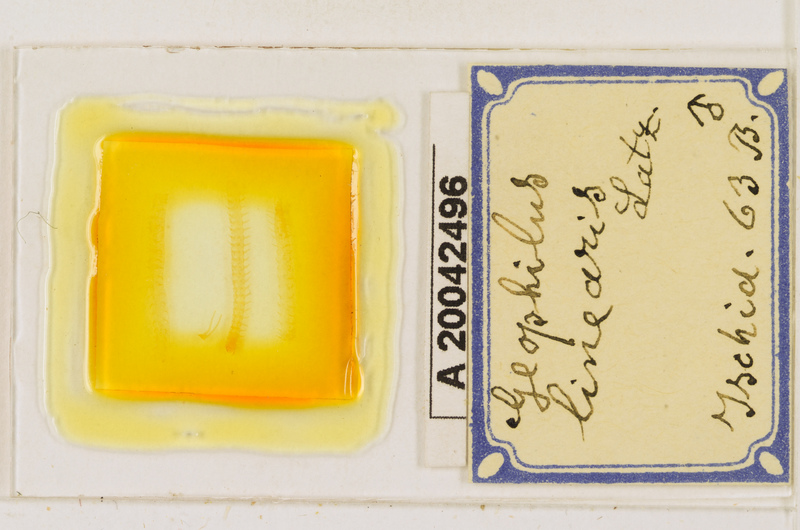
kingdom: Animalia
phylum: Arthropoda
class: Chilopoda
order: Geophilomorpha
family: Geophilidae
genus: Stenotaenia
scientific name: Stenotaenia linearis
